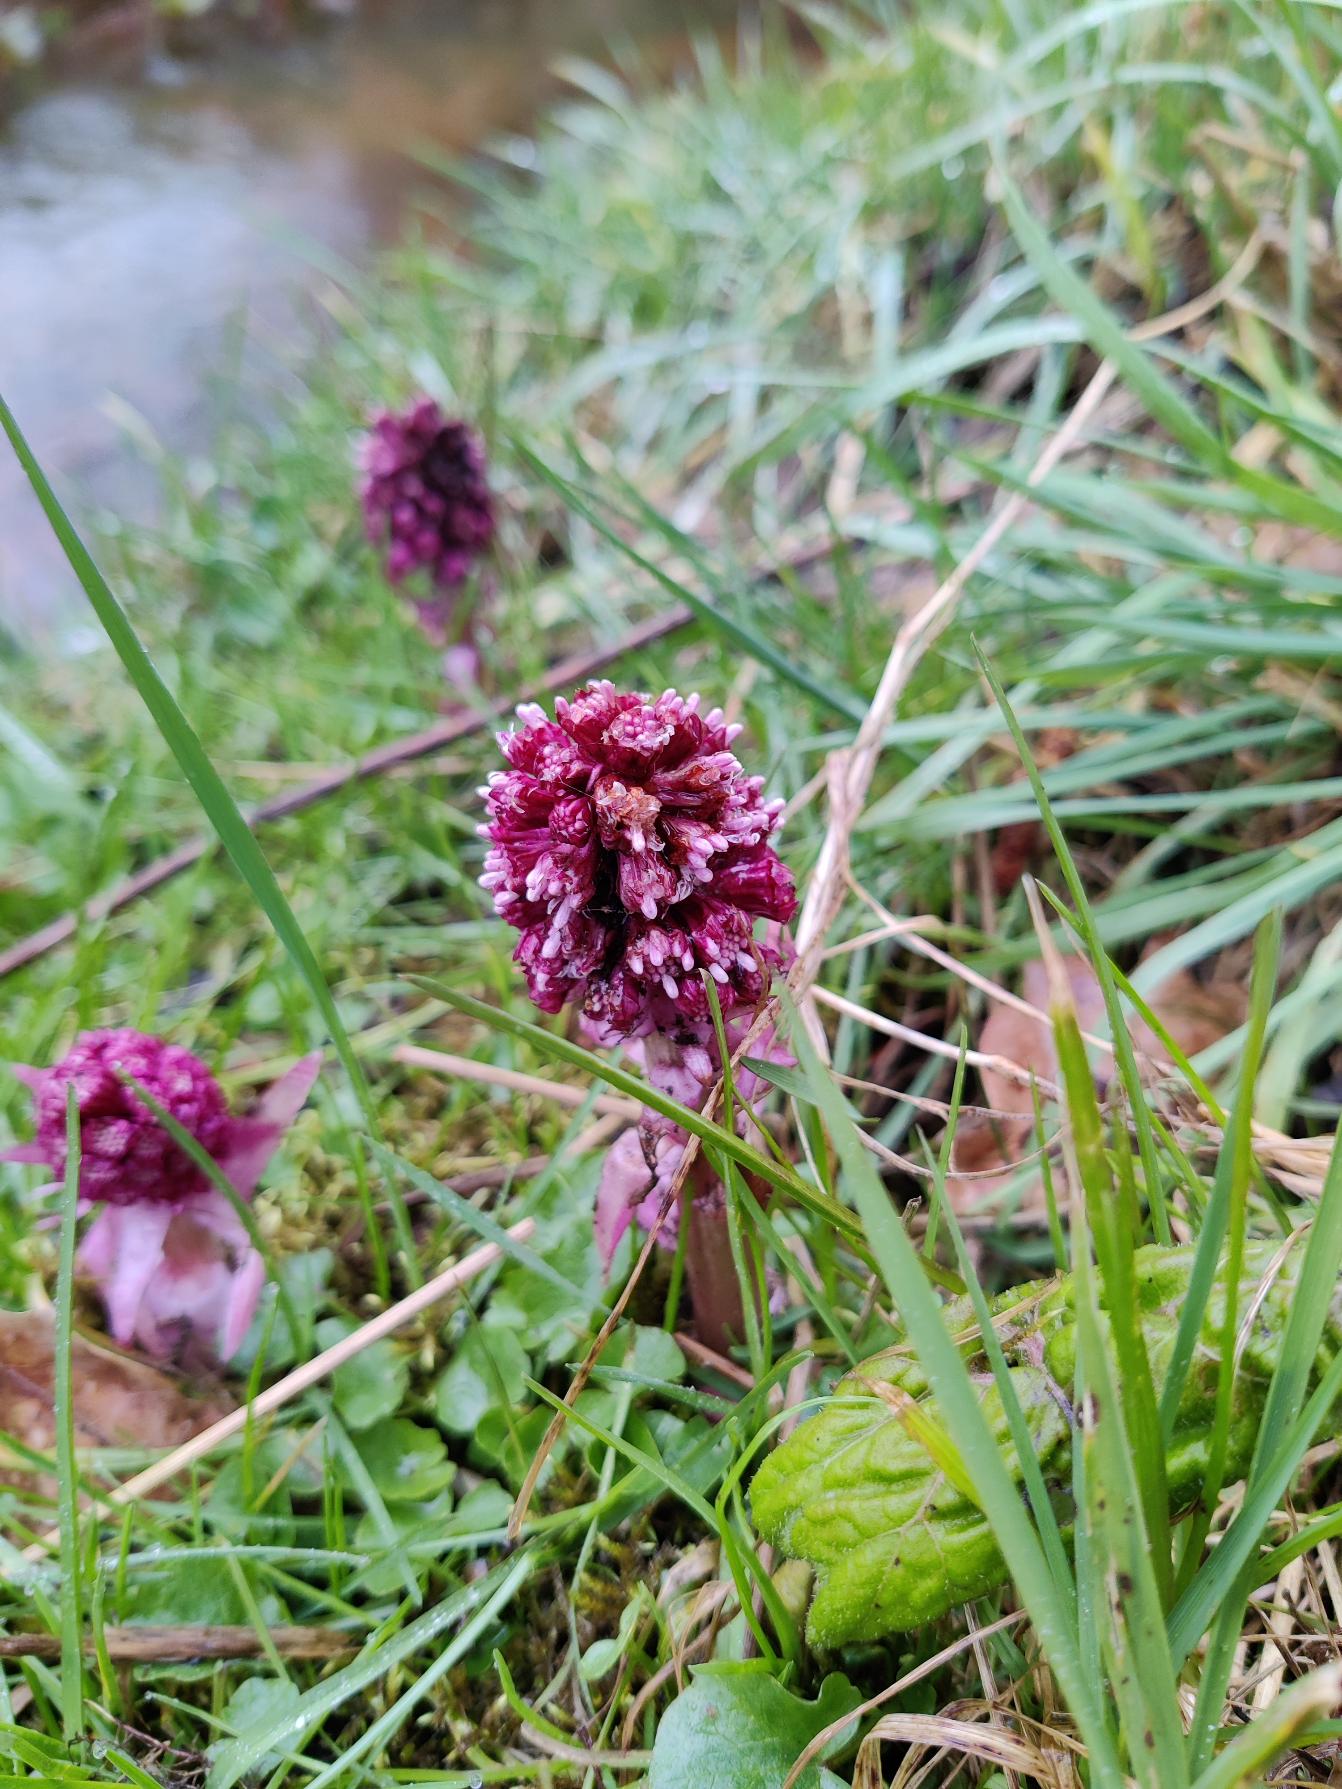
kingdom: Plantae
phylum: Tracheophyta
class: Magnoliopsida
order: Asterales
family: Asteraceae
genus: Petasites
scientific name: Petasites hybridus
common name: Rød hestehov
